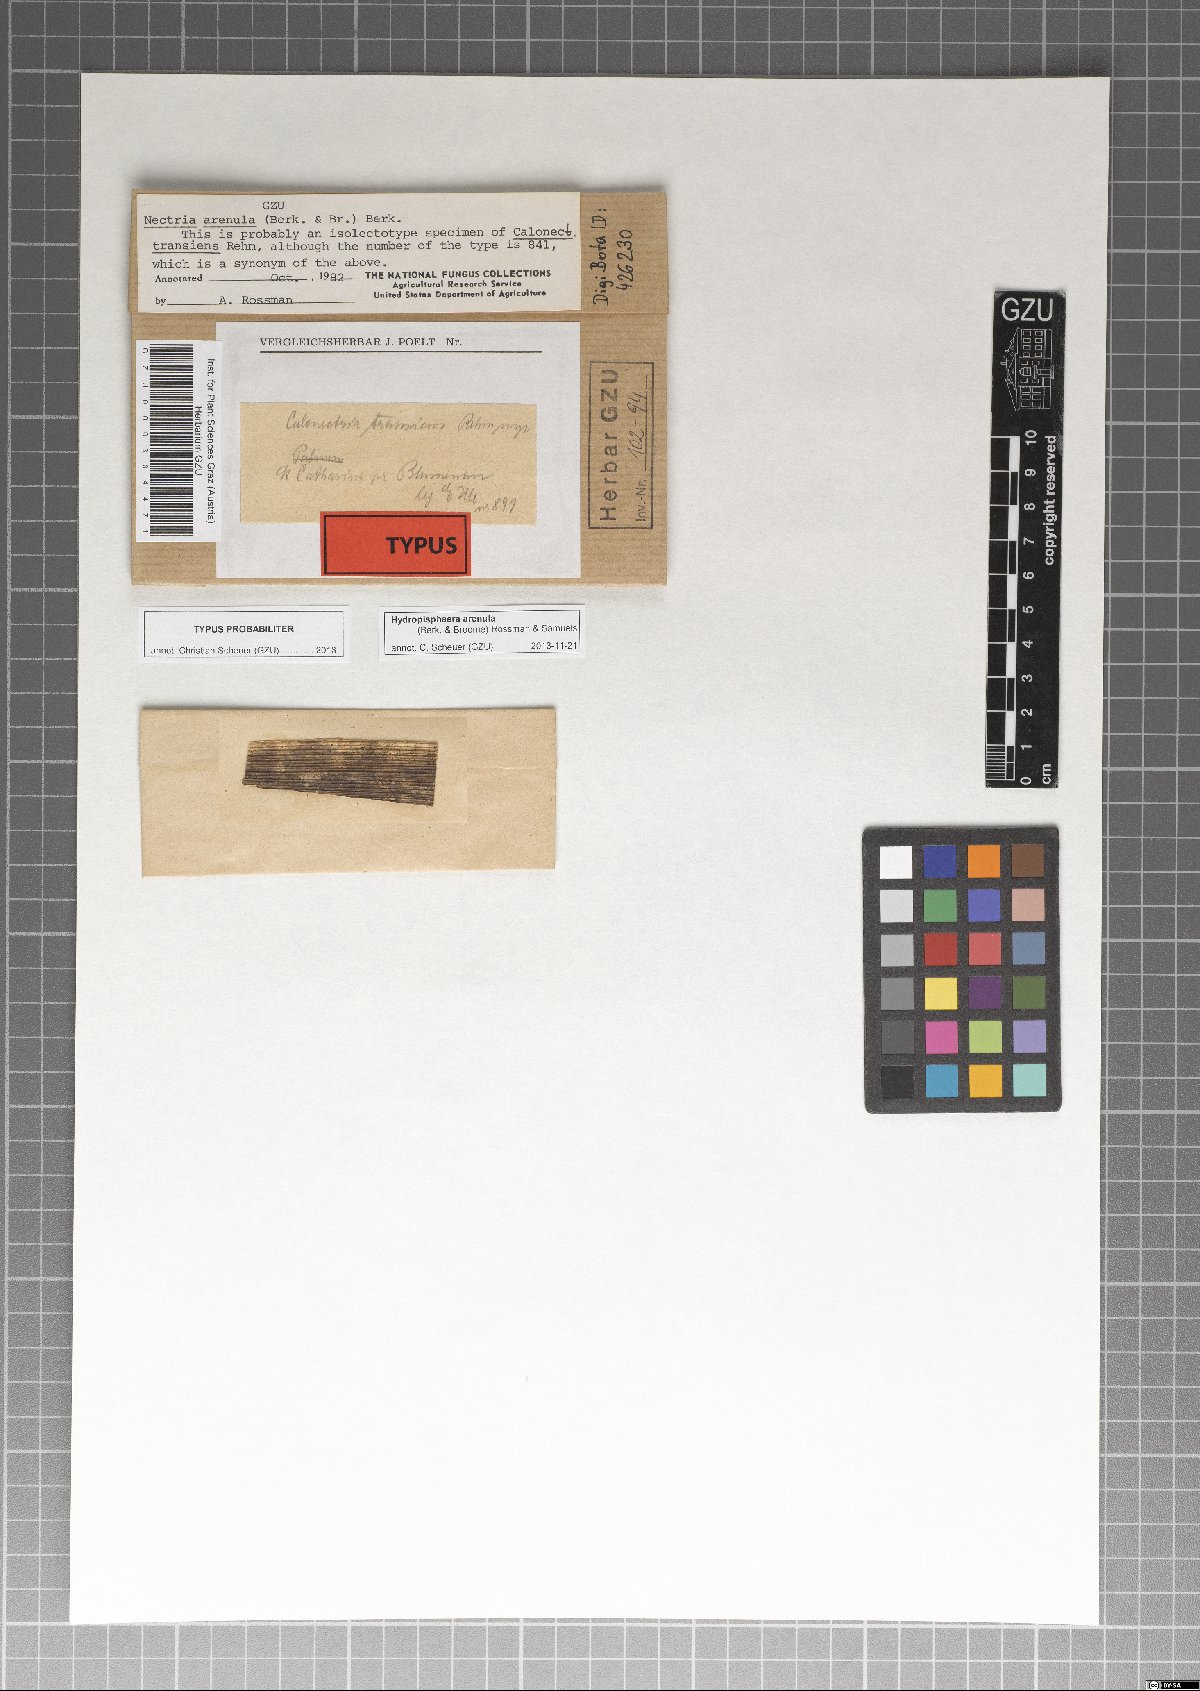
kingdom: Fungi
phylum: Ascomycota
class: Sordariomycetes
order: Hypocreales
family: Nectriaceae
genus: Hydropisphaera
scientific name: Hydropisphaera arenula
